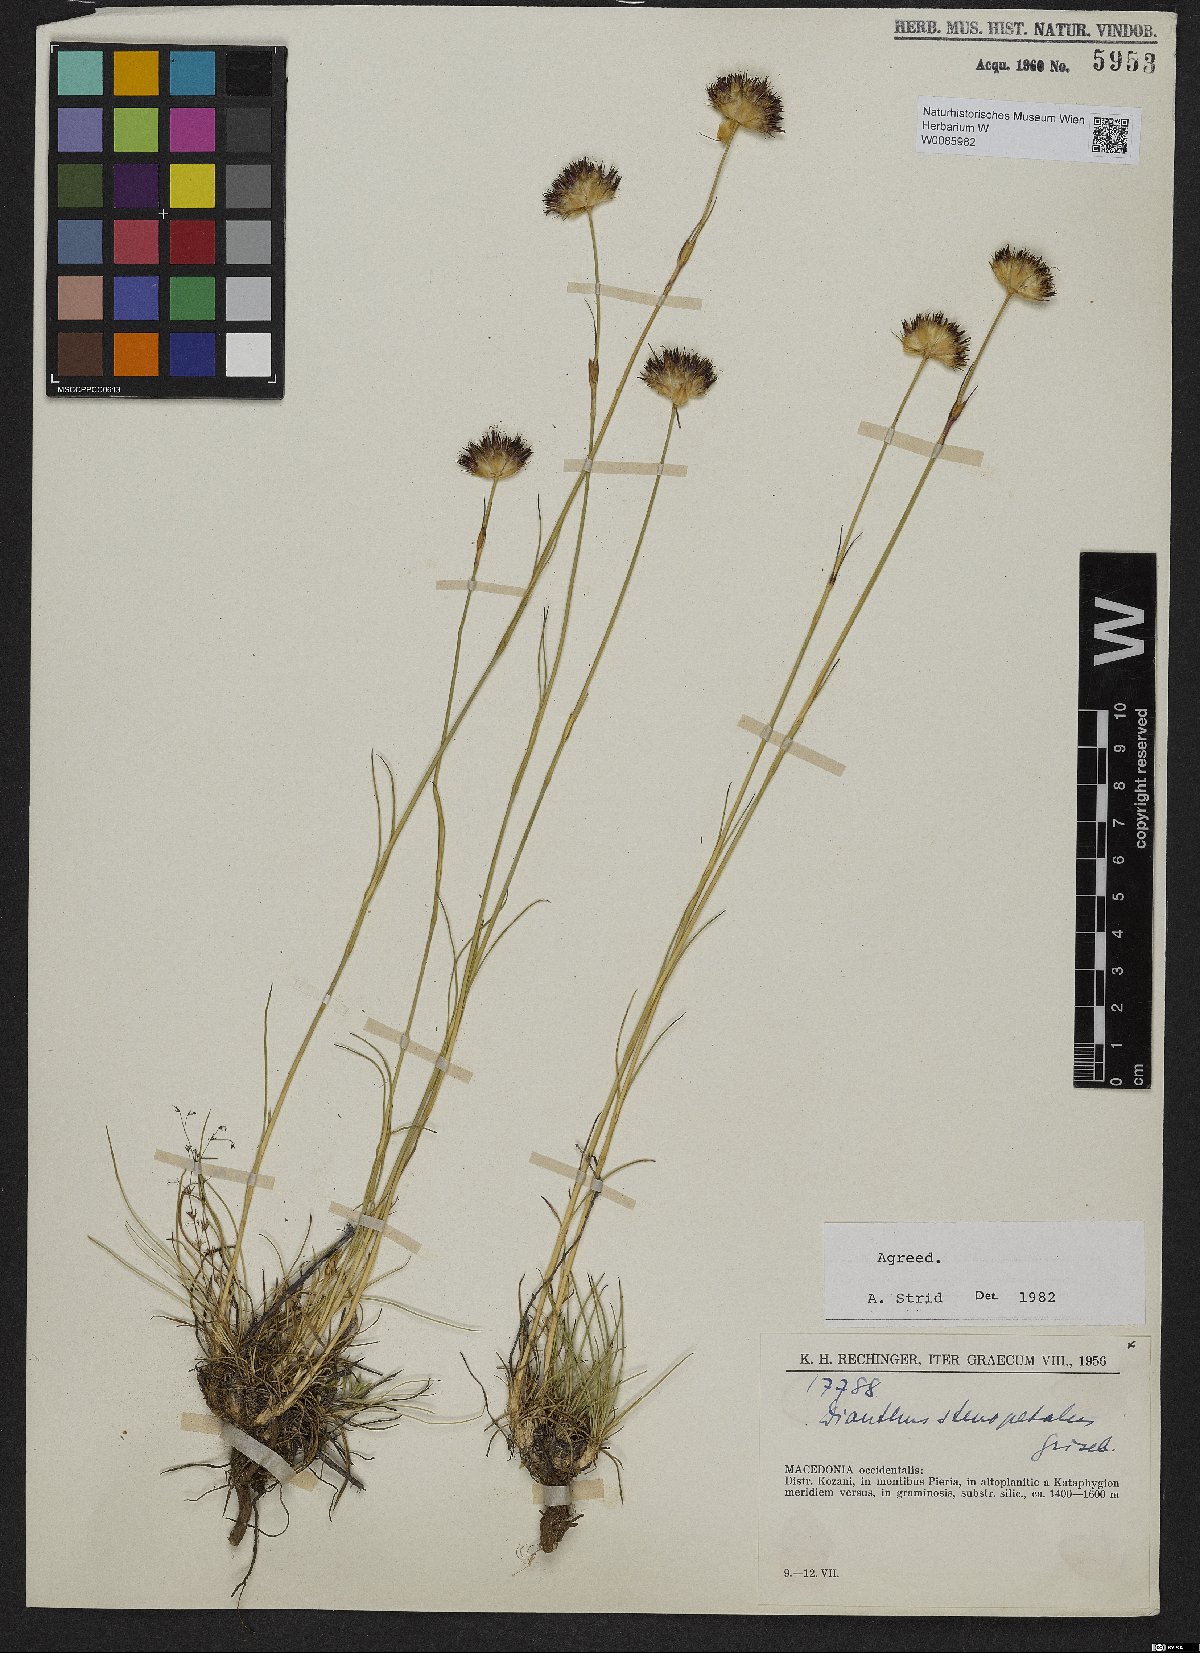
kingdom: Plantae
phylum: Tracheophyta
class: Magnoliopsida
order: Caryophyllales
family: Caryophyllaceae
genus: Dianthus
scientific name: Dianthus stenopetalus
